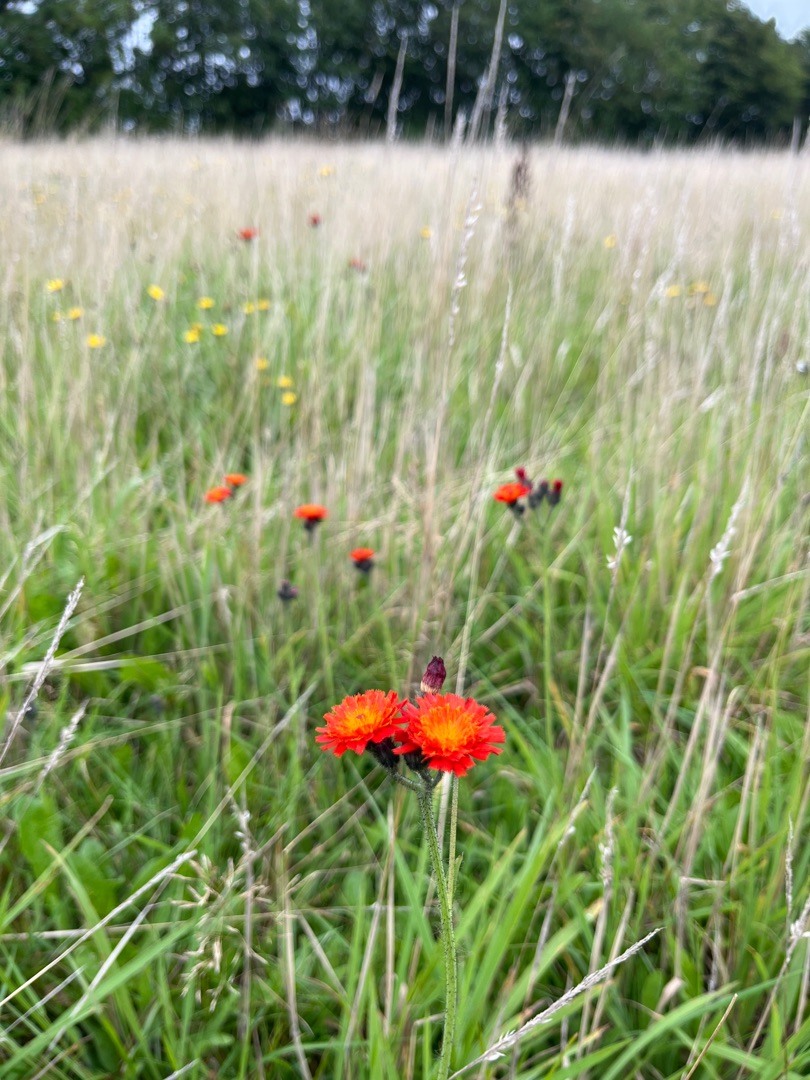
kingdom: Plantae
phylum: Tracheophyta
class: Magnoliopsida
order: Asterales
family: Asteraceae
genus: Pilosella
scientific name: Pilosella aurantiaca
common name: Pomerans-høgeurt
